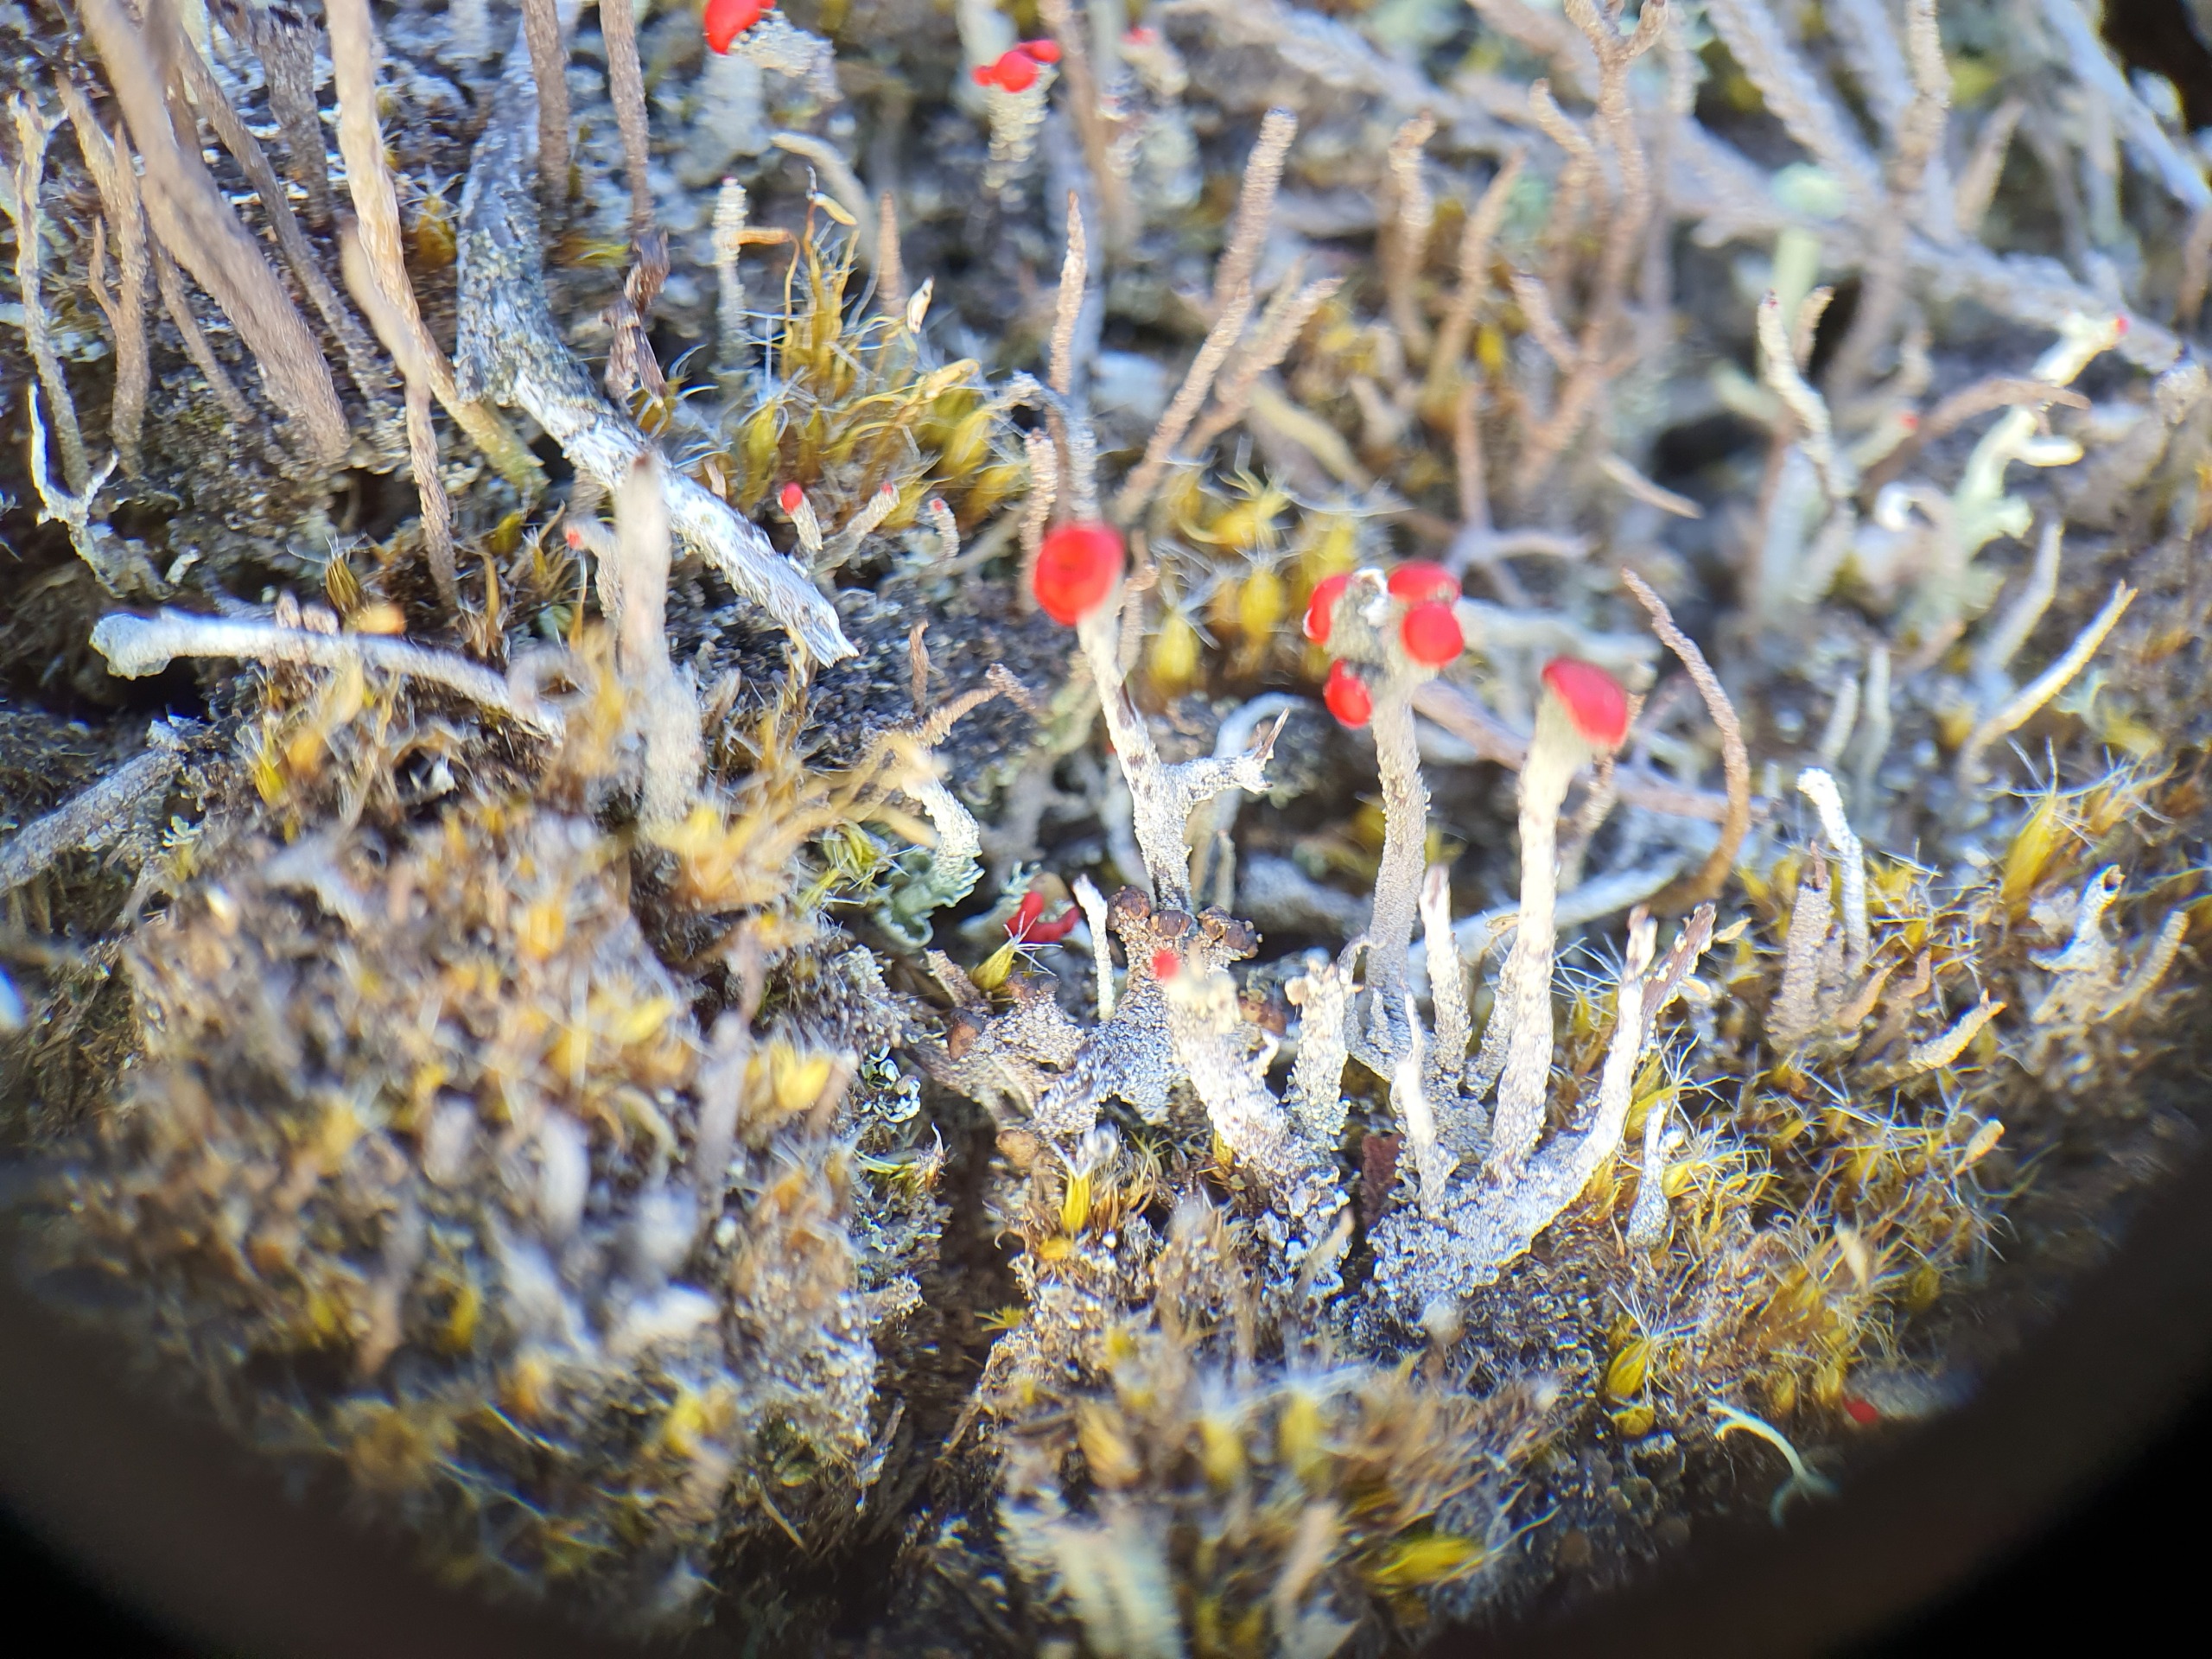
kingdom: Fungi
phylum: Ascomycota
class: Lecanoromycetes
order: Lecanorales
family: Cladoniaceae
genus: Cladonia
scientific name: Cladonia floerkeana
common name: Lakrød bægerlav
